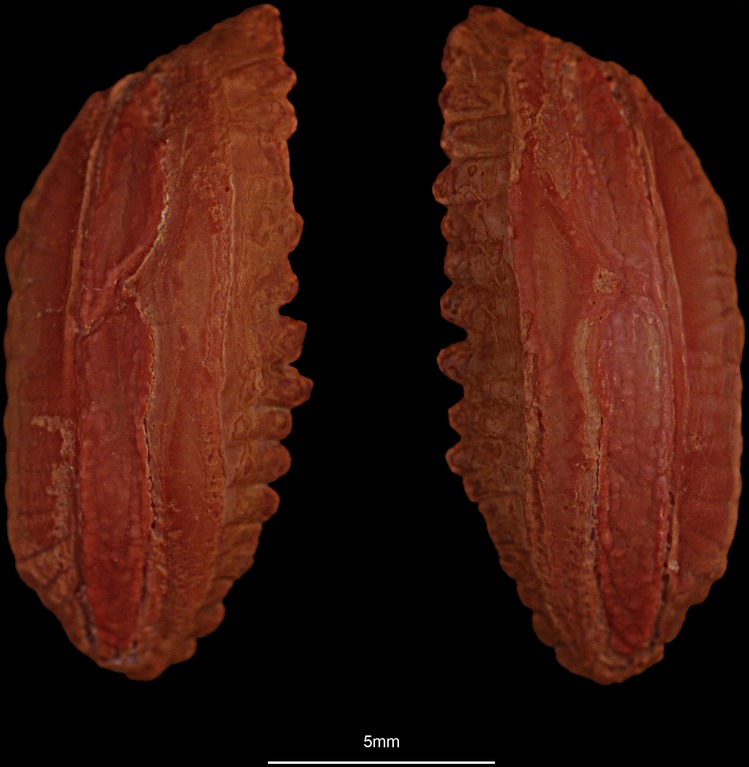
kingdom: Animalia
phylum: Chordata
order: Gadiformes
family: Gadidae
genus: Gadus
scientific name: Gadus morhua
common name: Atlantic cod
